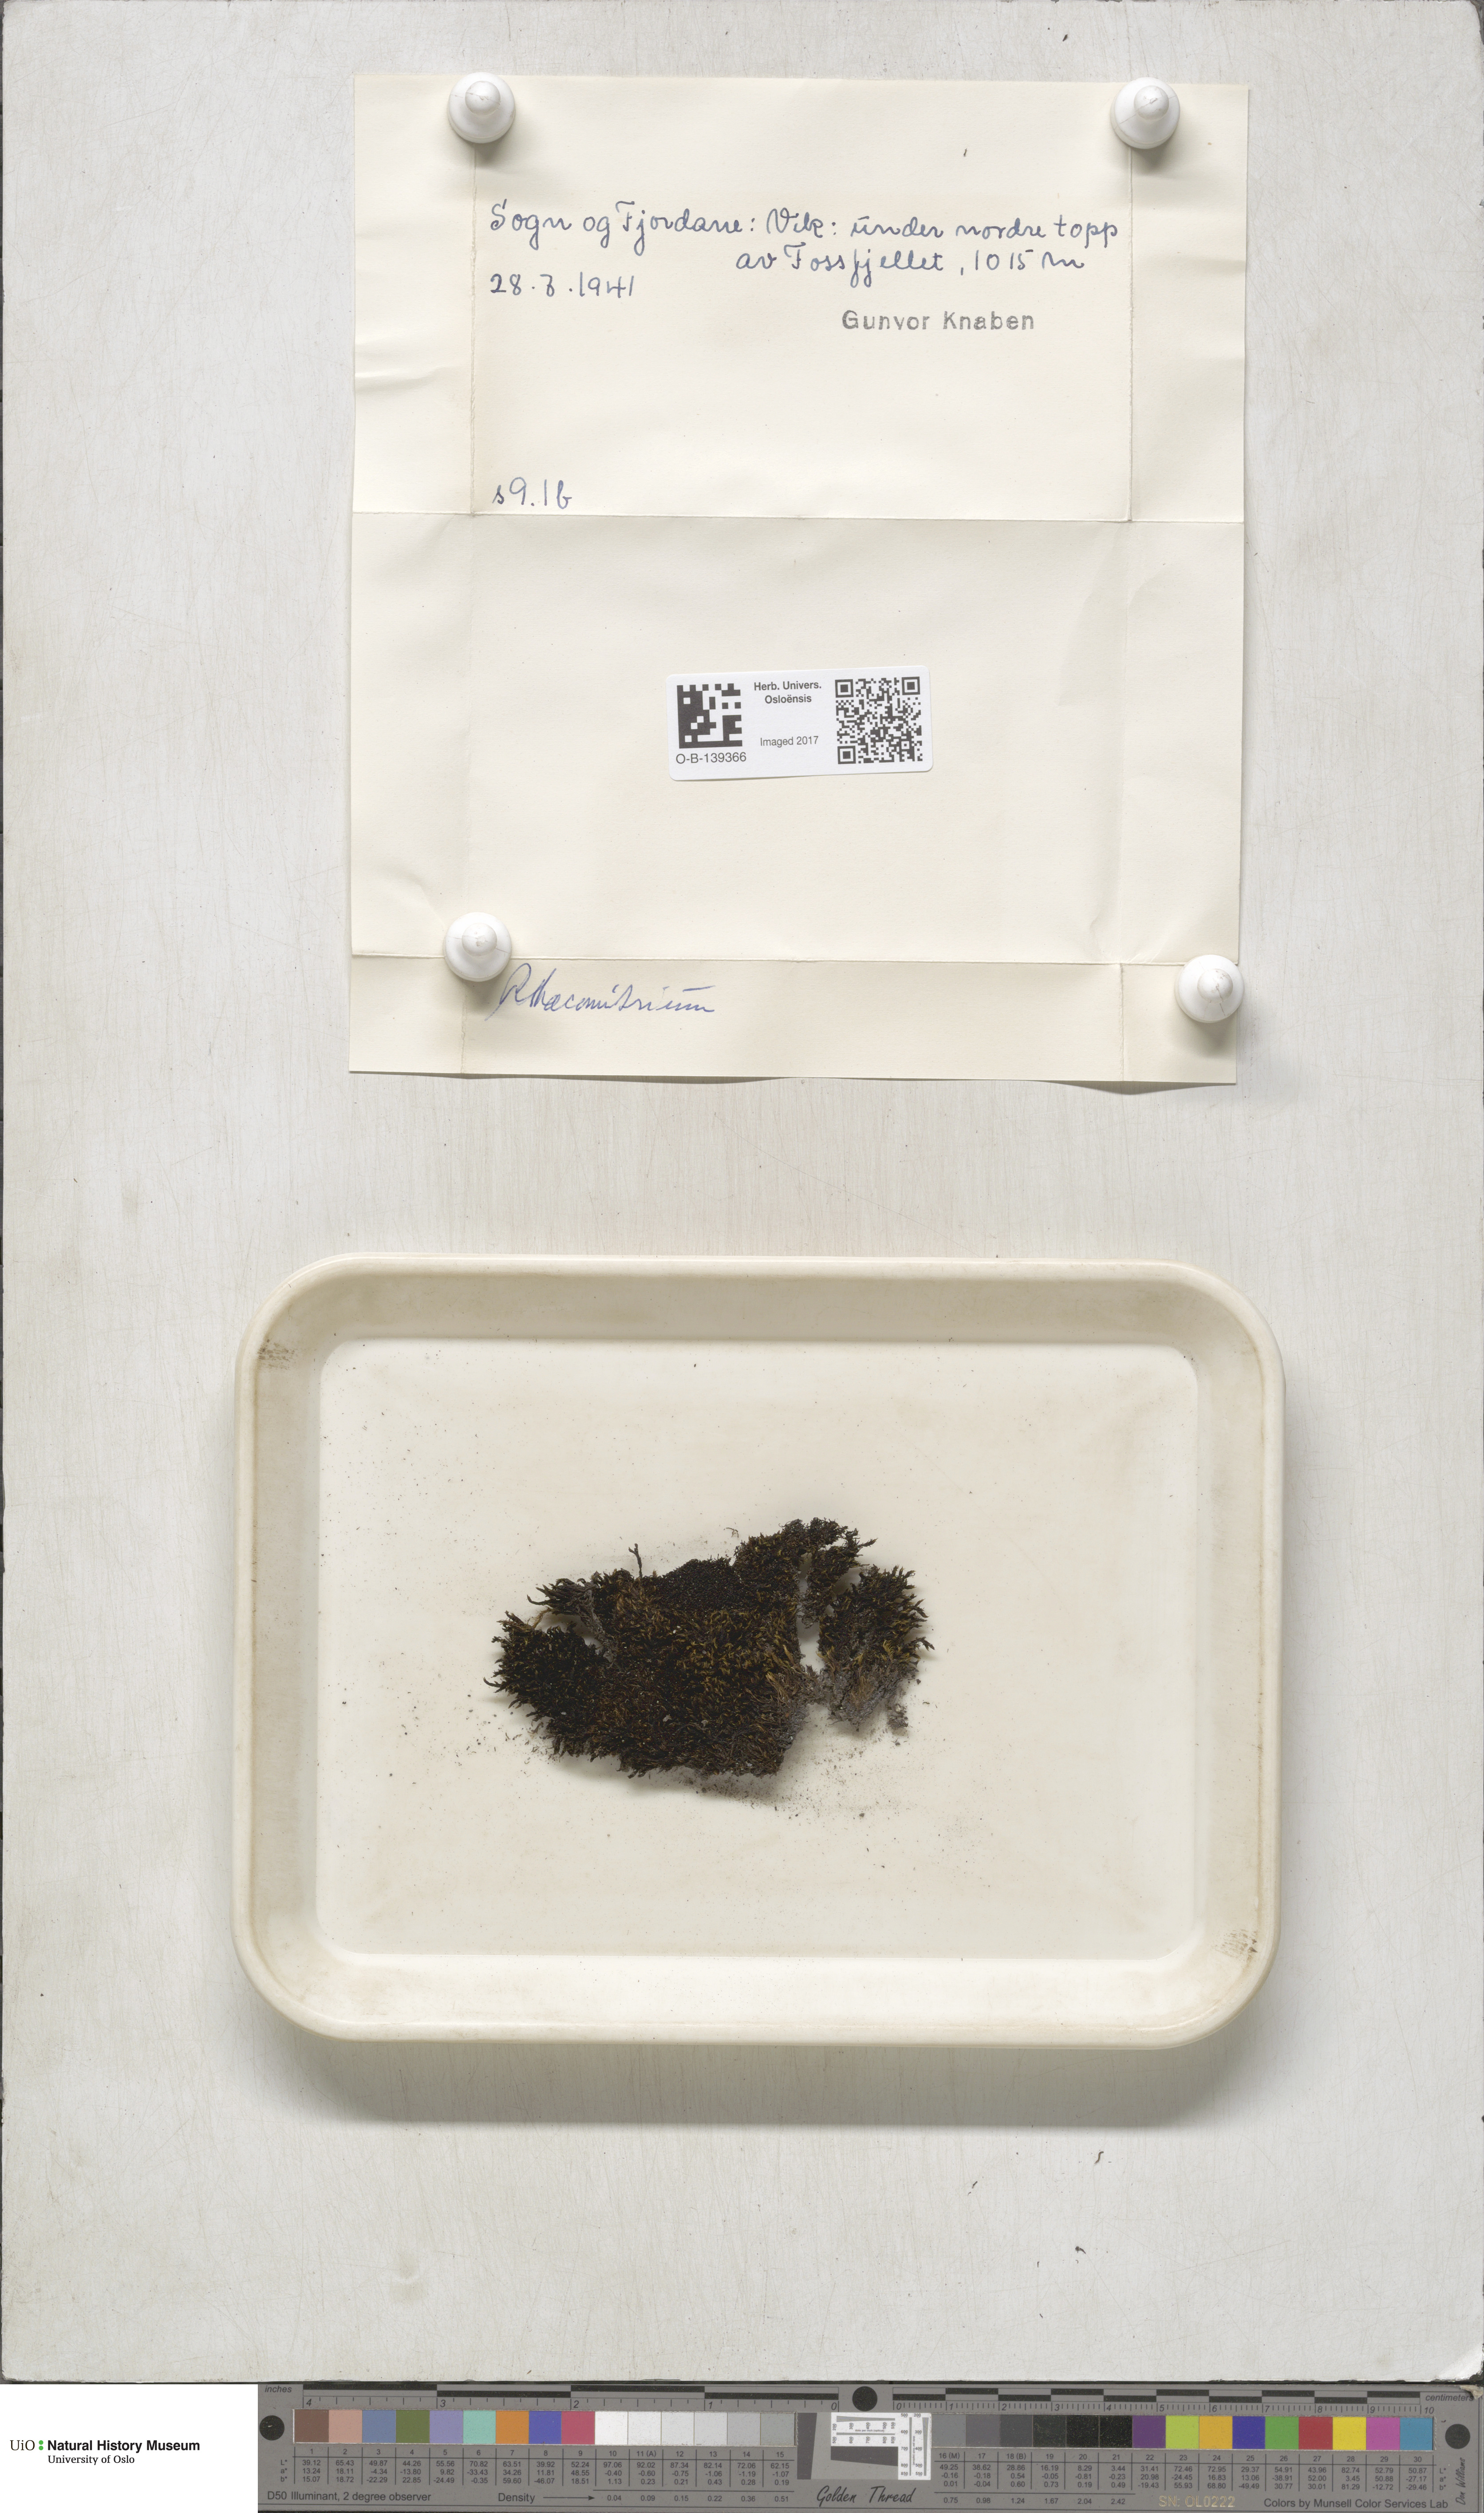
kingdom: Plantae
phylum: Bryophyta
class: Bryopsida
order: Grimmiales
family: Grimmiaceae
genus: Racomitrium
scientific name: Racomitrium
